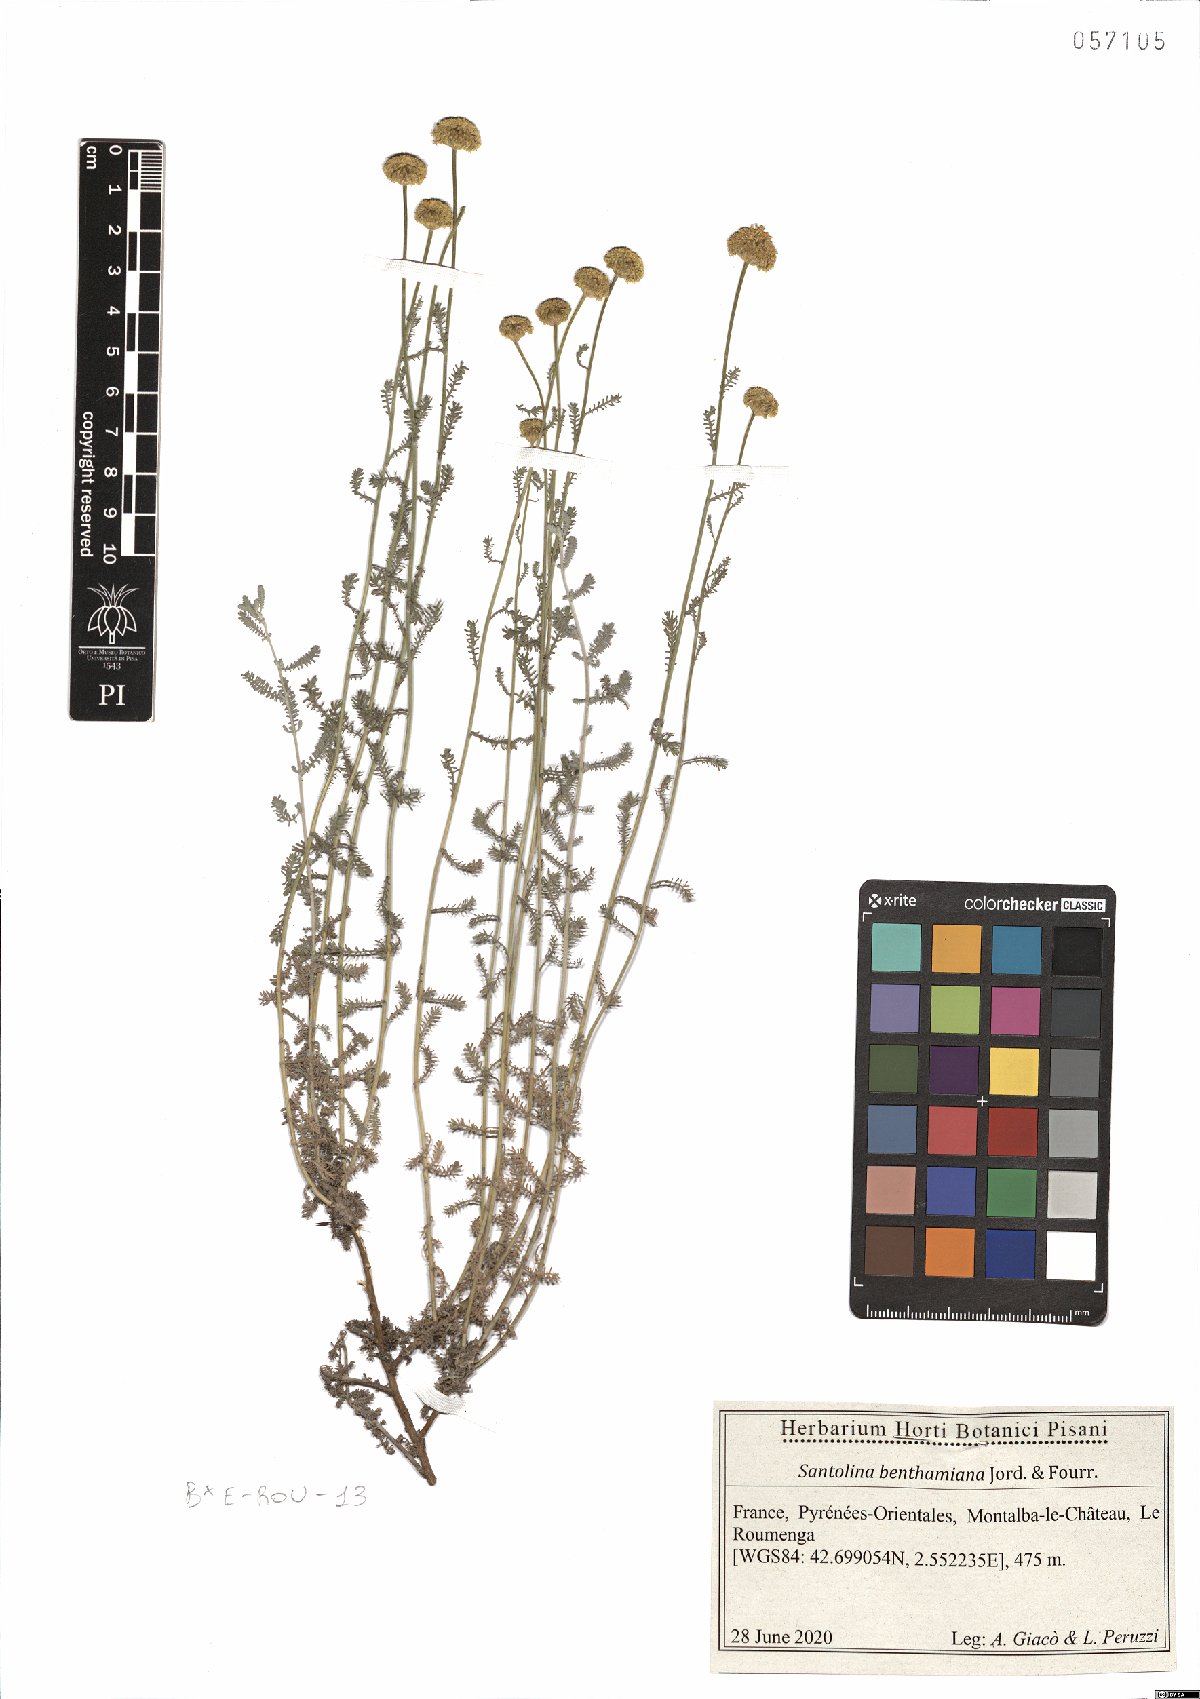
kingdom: Plantae
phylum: Tracheophyta
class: Magnoliopsida
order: Asterales
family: Asteraceae
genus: Santolina
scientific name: Santolina benthamiana
